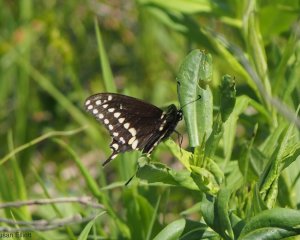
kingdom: Animalia
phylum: Arthropoda
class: Insecta
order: Lepidoptera
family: Papilionidae
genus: Papilio
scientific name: Papilio polyxenes
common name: Black Swallowtail
